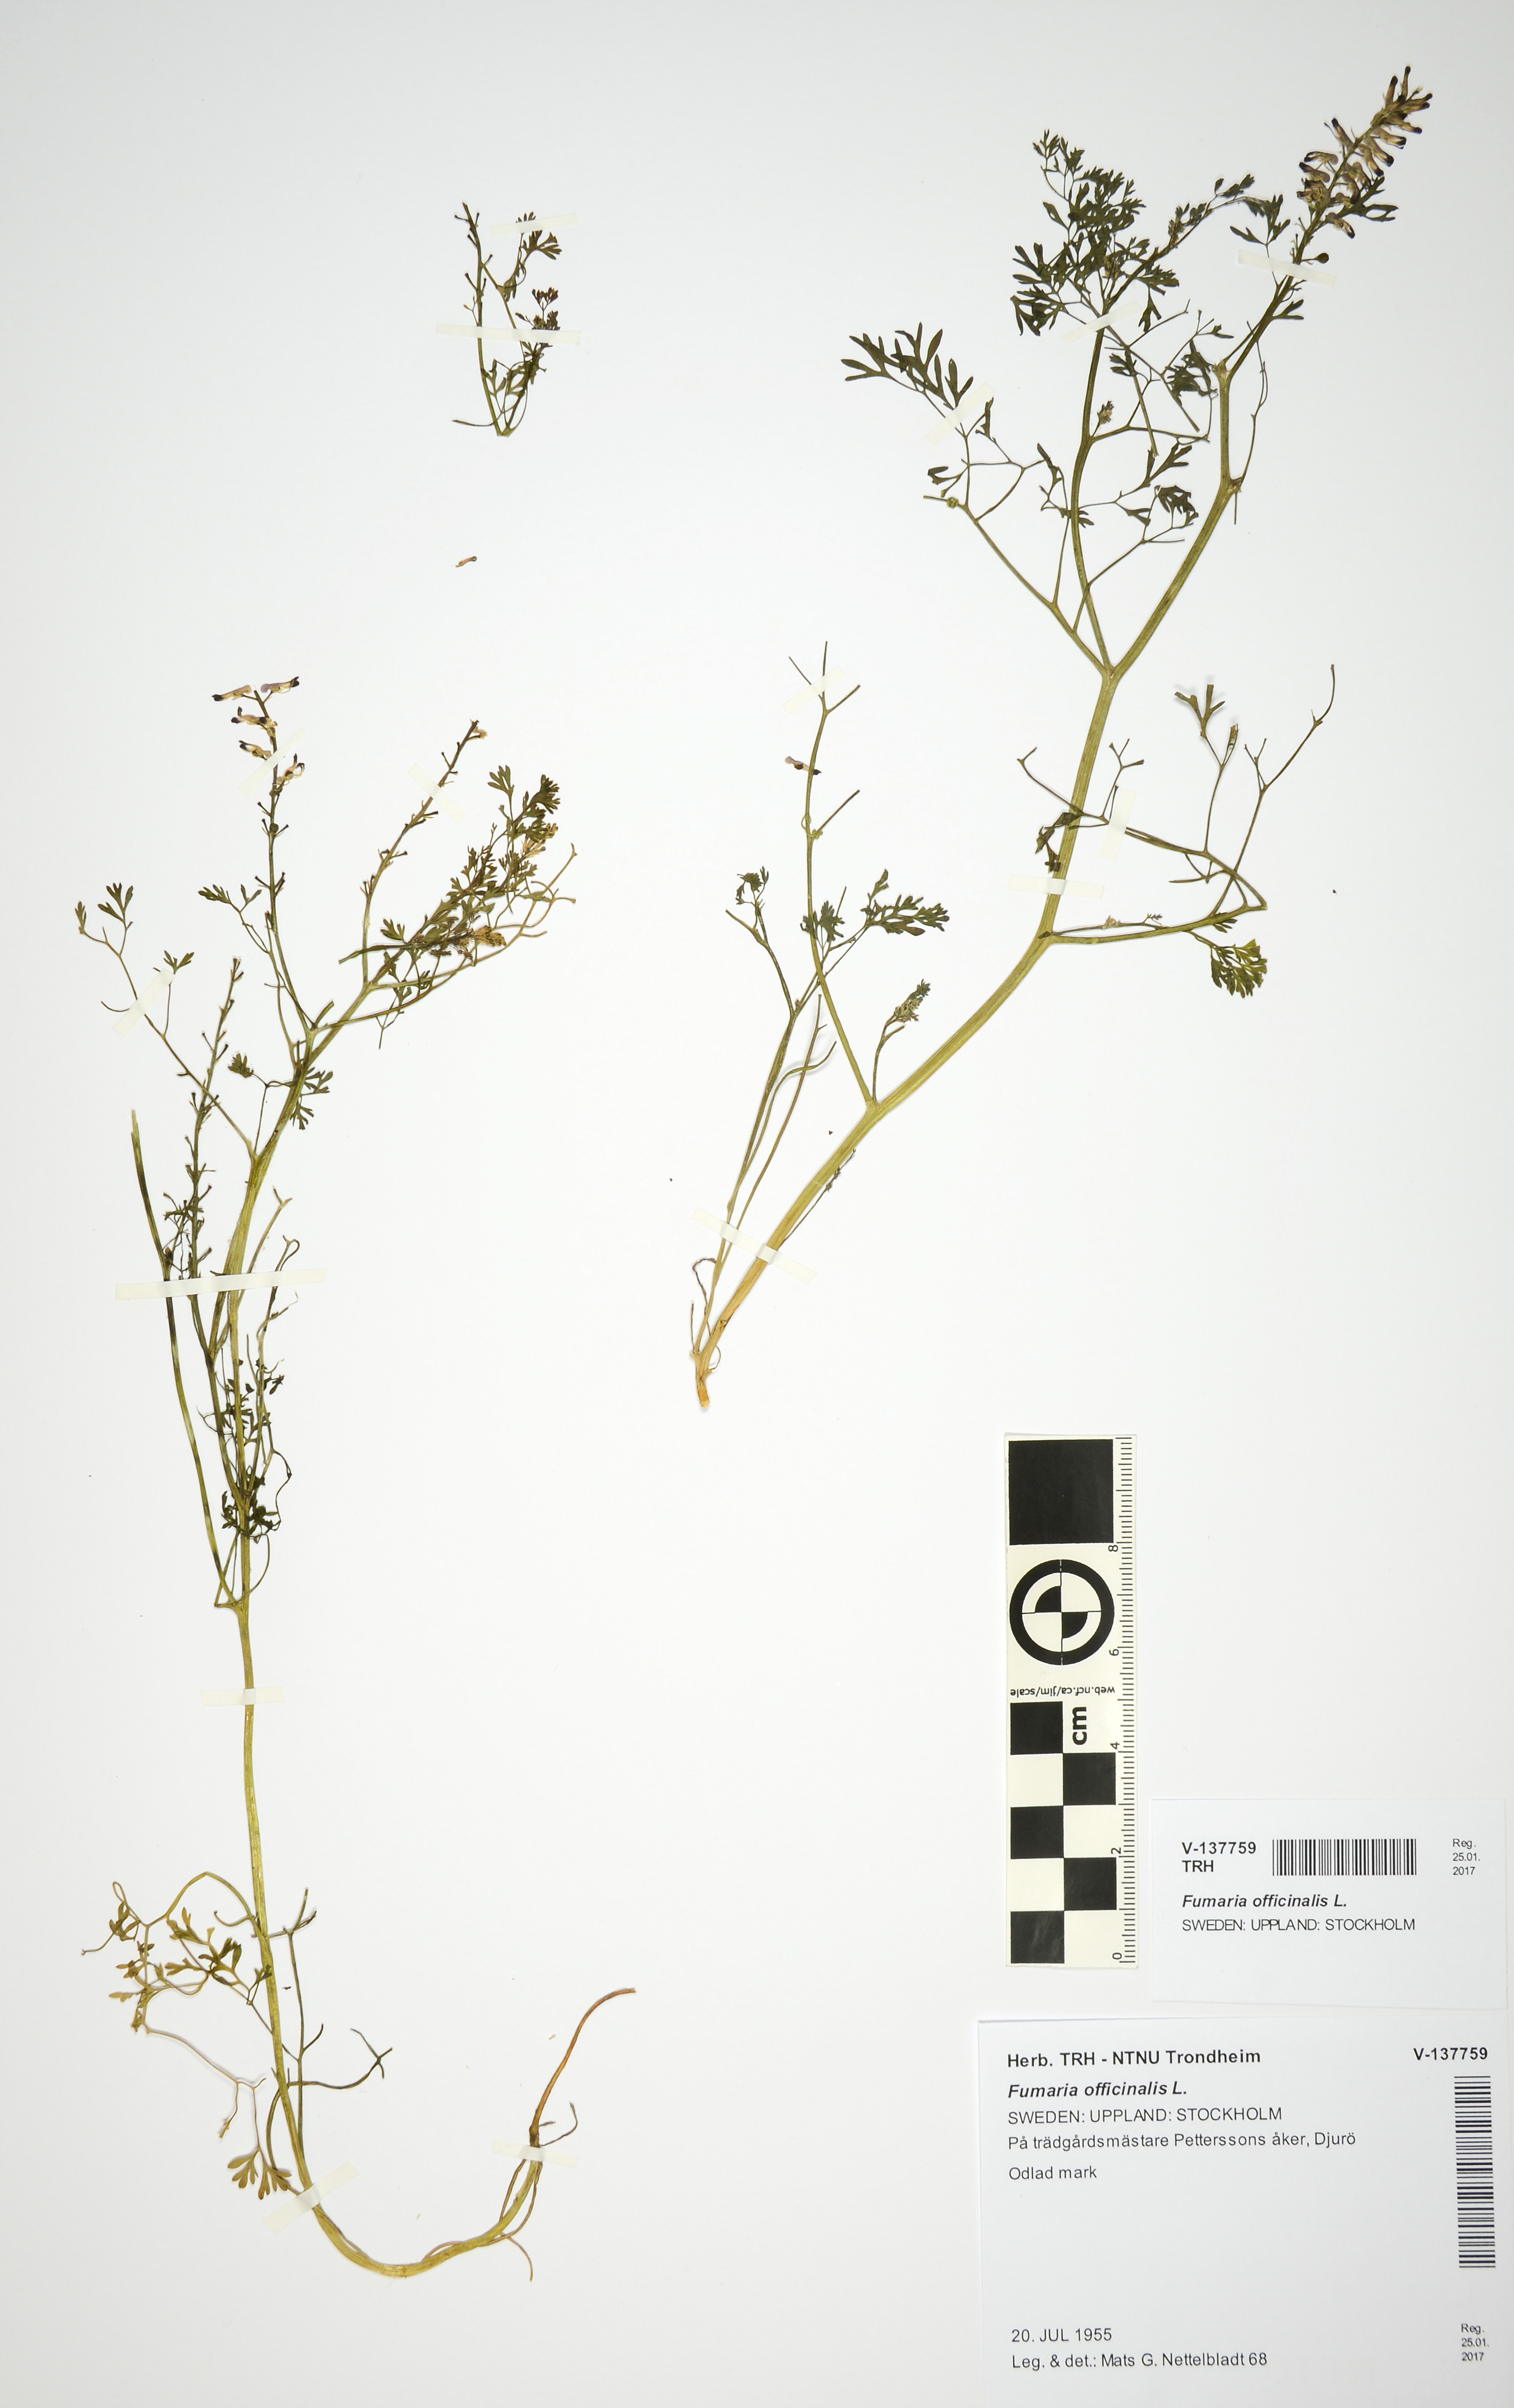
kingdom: Plantae
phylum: Tracheophyta
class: Magnoliopsida
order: Ranunculales
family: Papaveraceae
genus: Fumaria
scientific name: Fumaria officinalis
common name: Common fumitory
